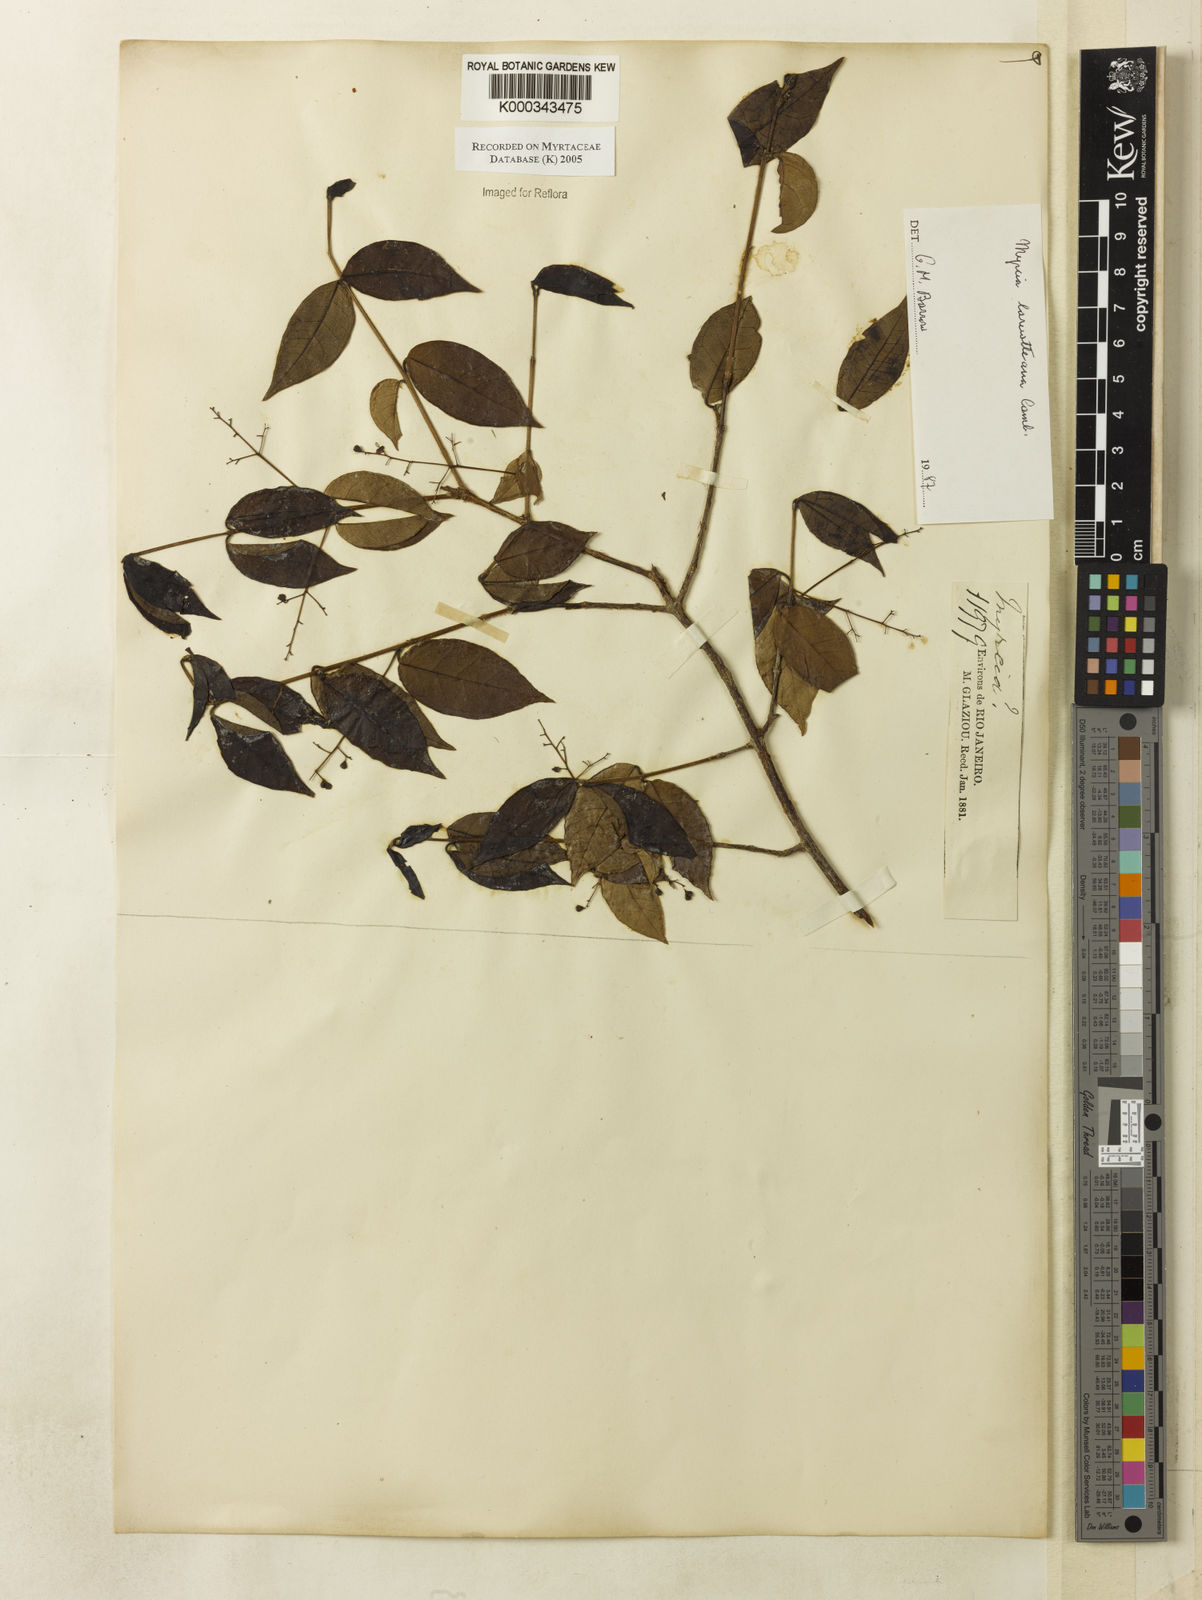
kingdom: Plantae
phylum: Tracheophyta
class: Magnoliopsida
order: Myrtales
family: Myrtaceae
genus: Myrcia
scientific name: Myrcia laruotteana
